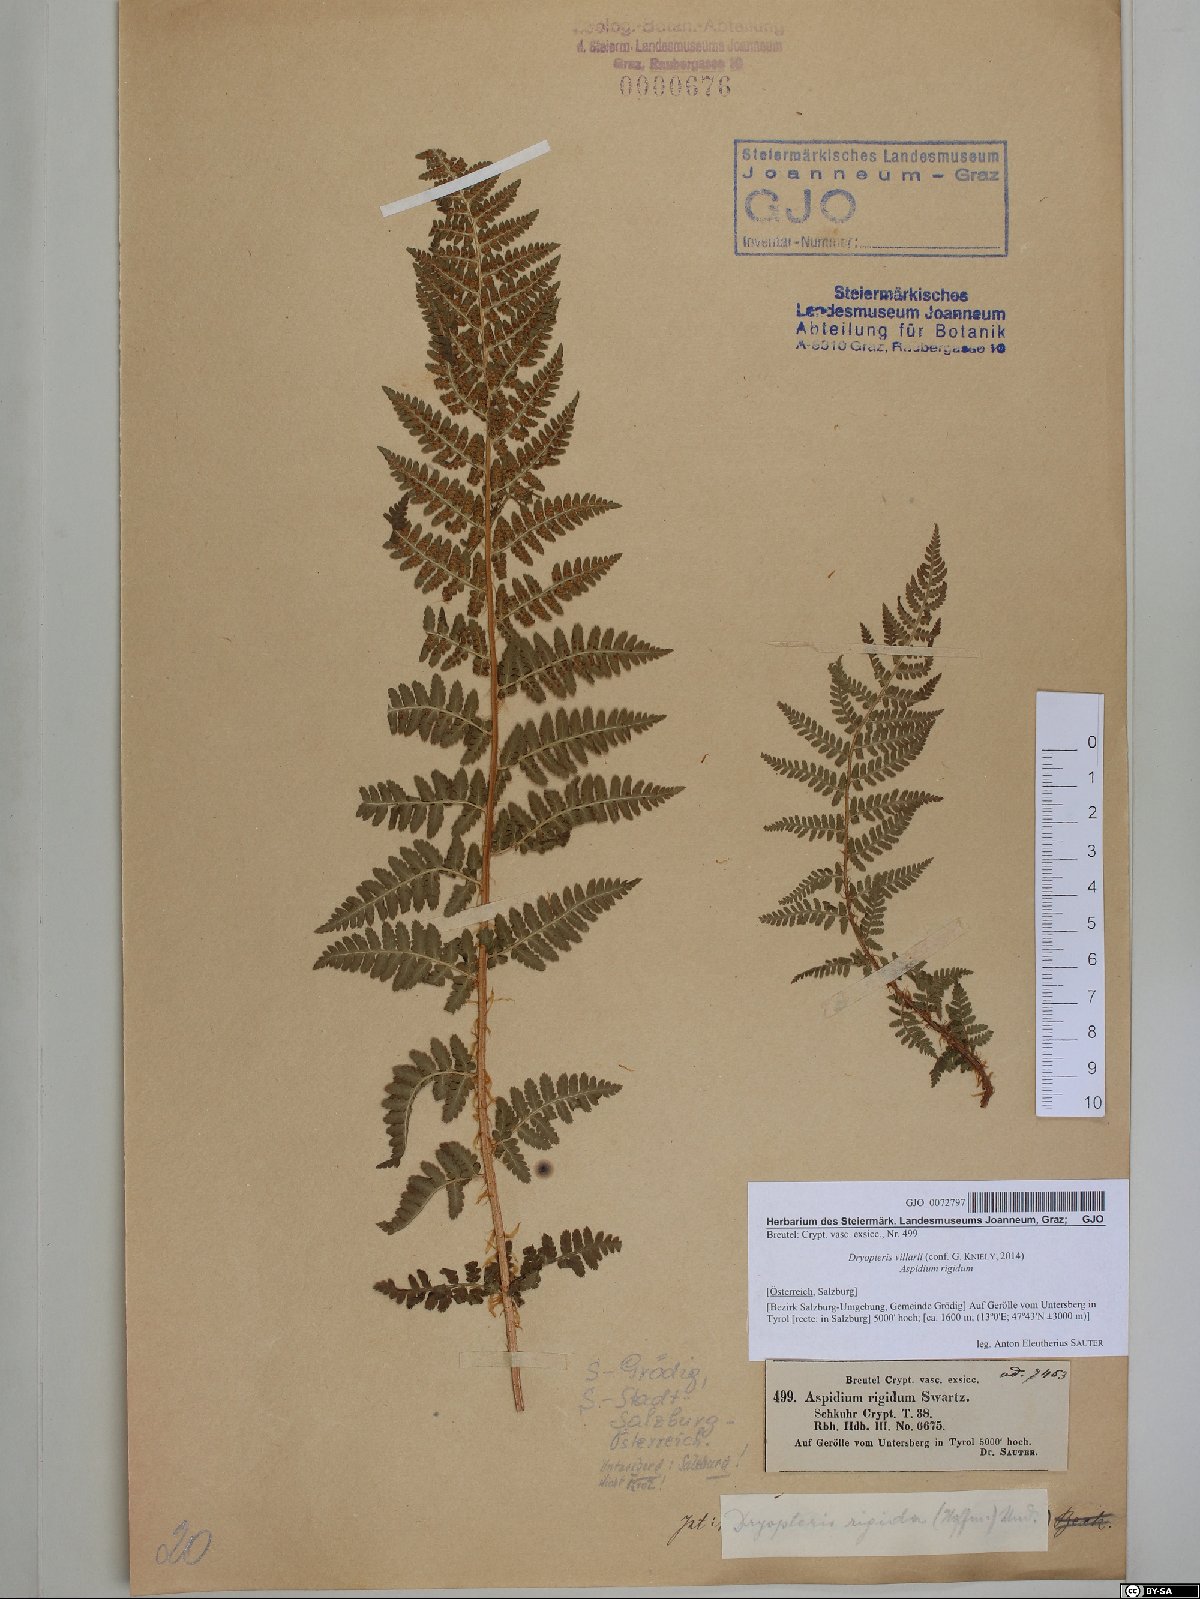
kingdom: Plantae
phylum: Tracheophyta
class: Polypodiopsida
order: Polypodiales
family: Dryopteridaceae
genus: Dryopteris
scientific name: Dryopteris villarii
